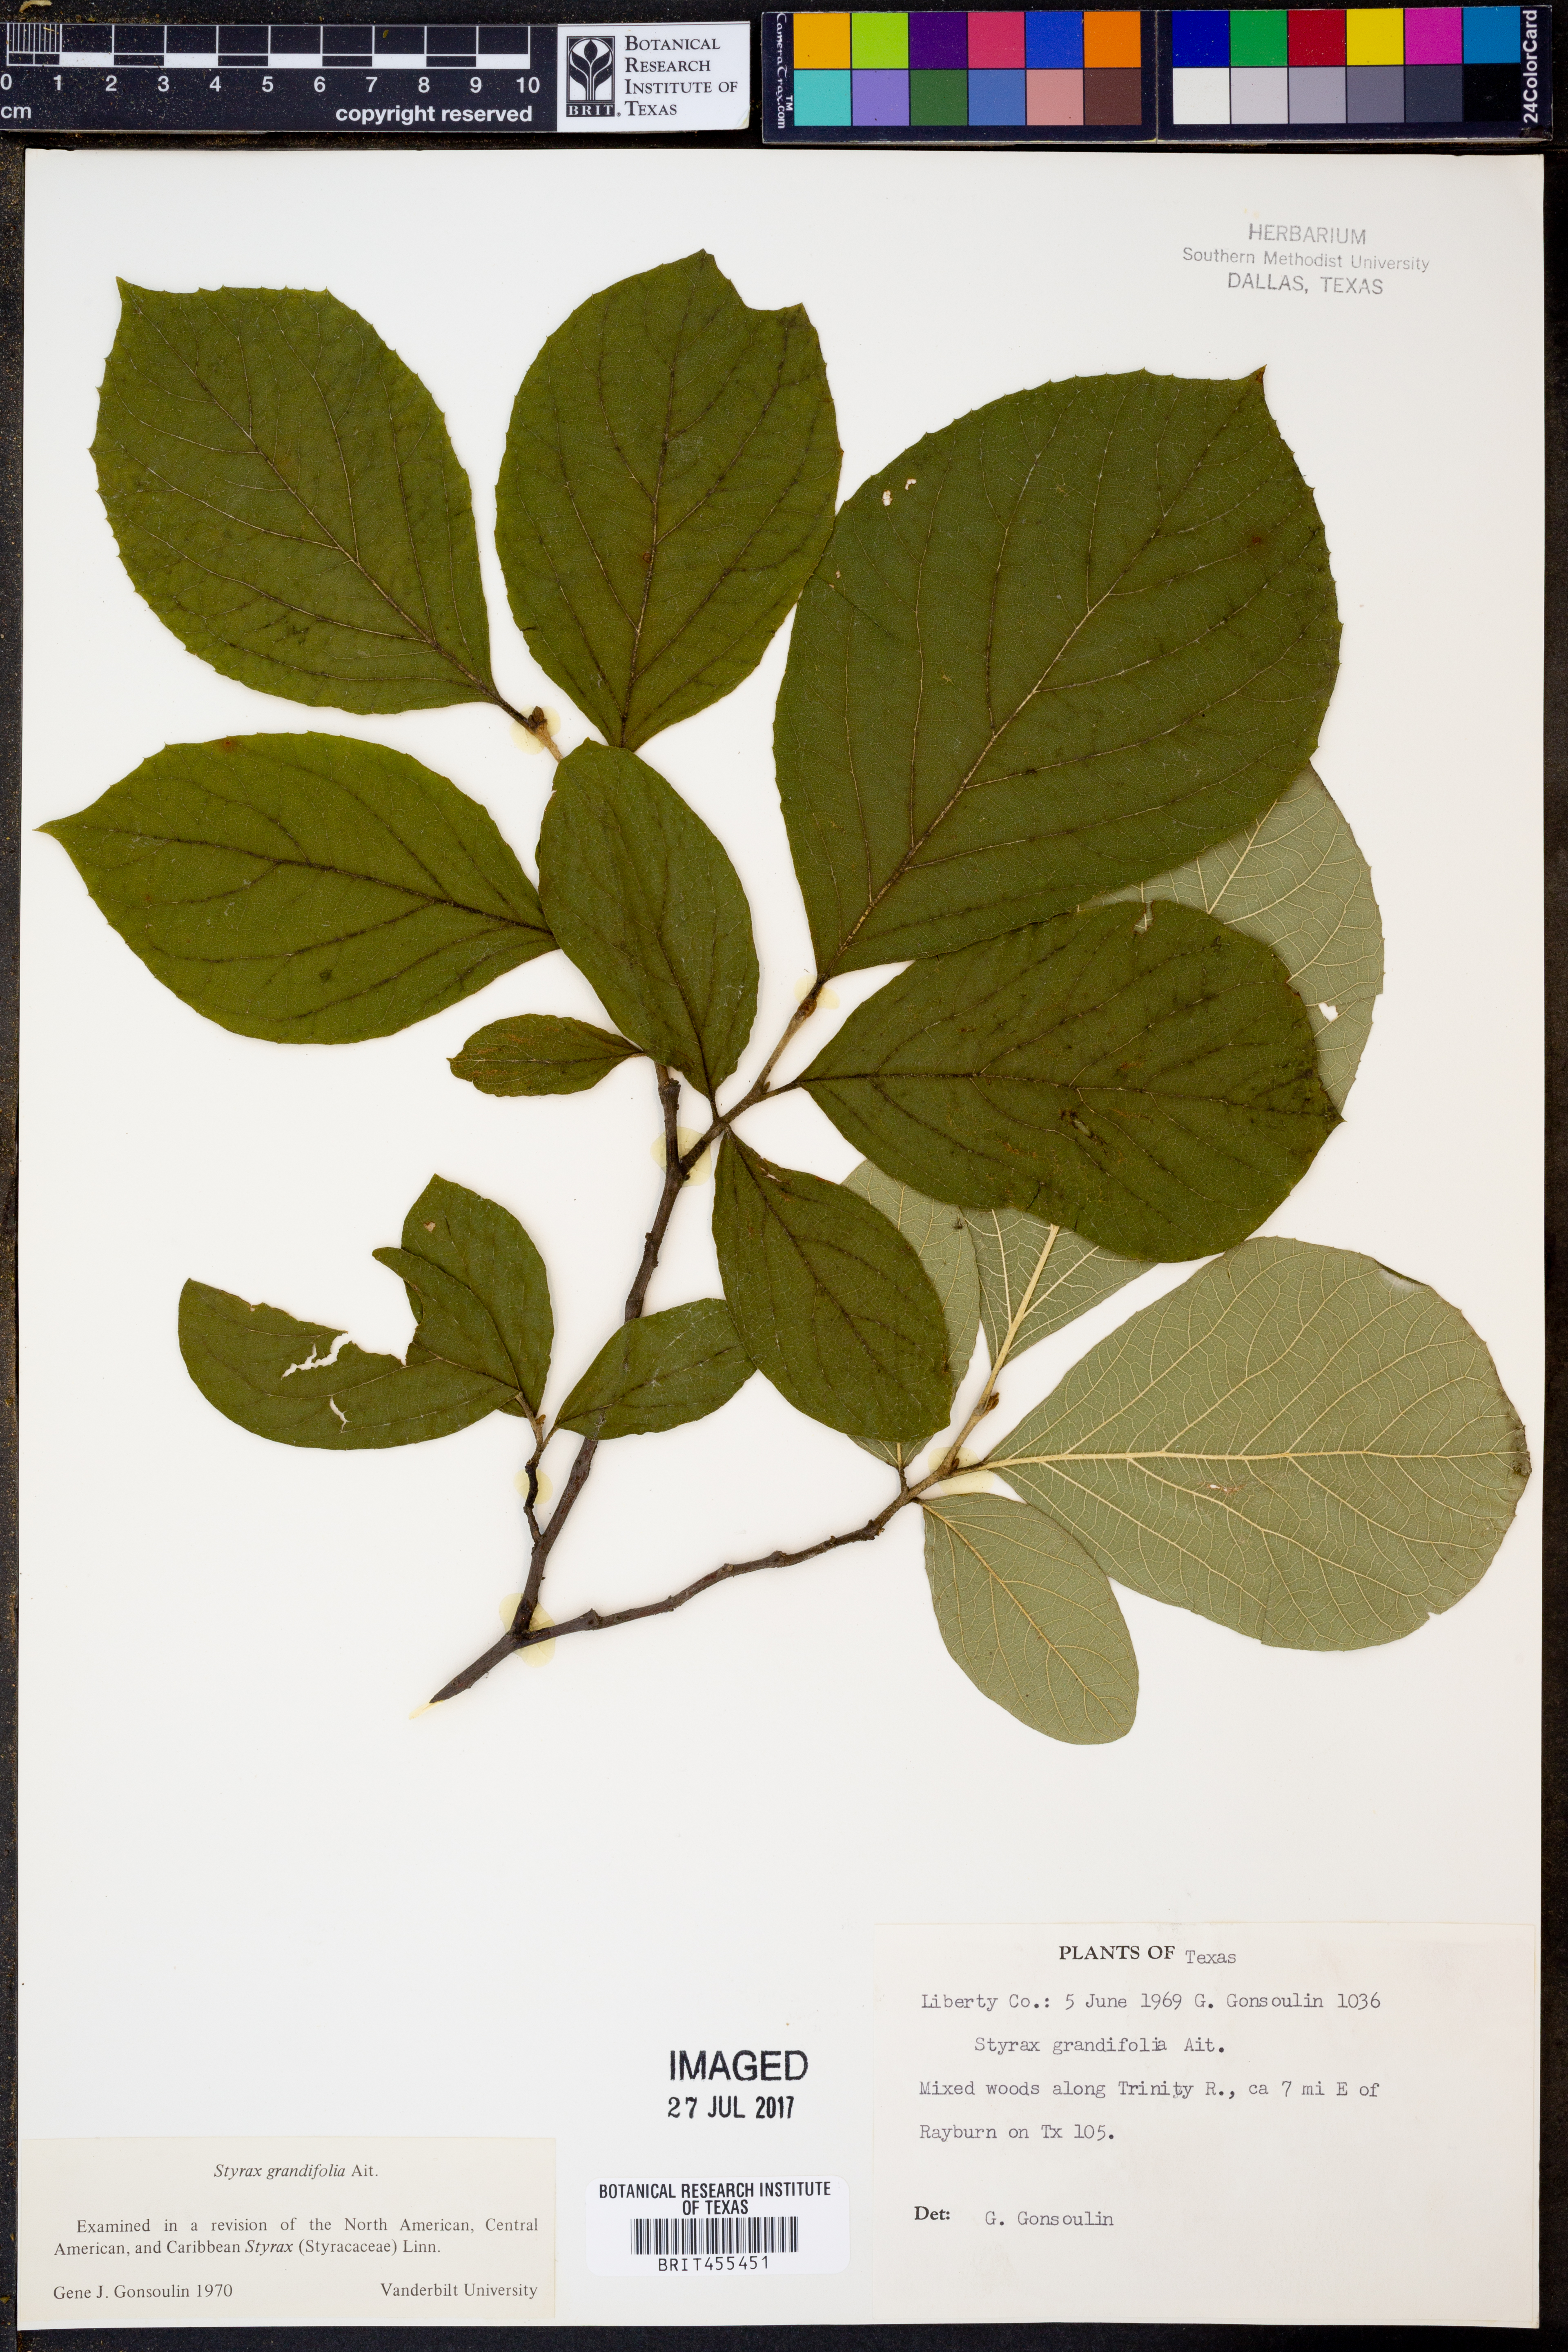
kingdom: Plantae
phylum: Tracheophyta
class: Magnoliopsida
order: Ericales
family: Styracaceae
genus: Styrax
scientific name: Styrax grandifolius
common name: Big-leaf snowbell
